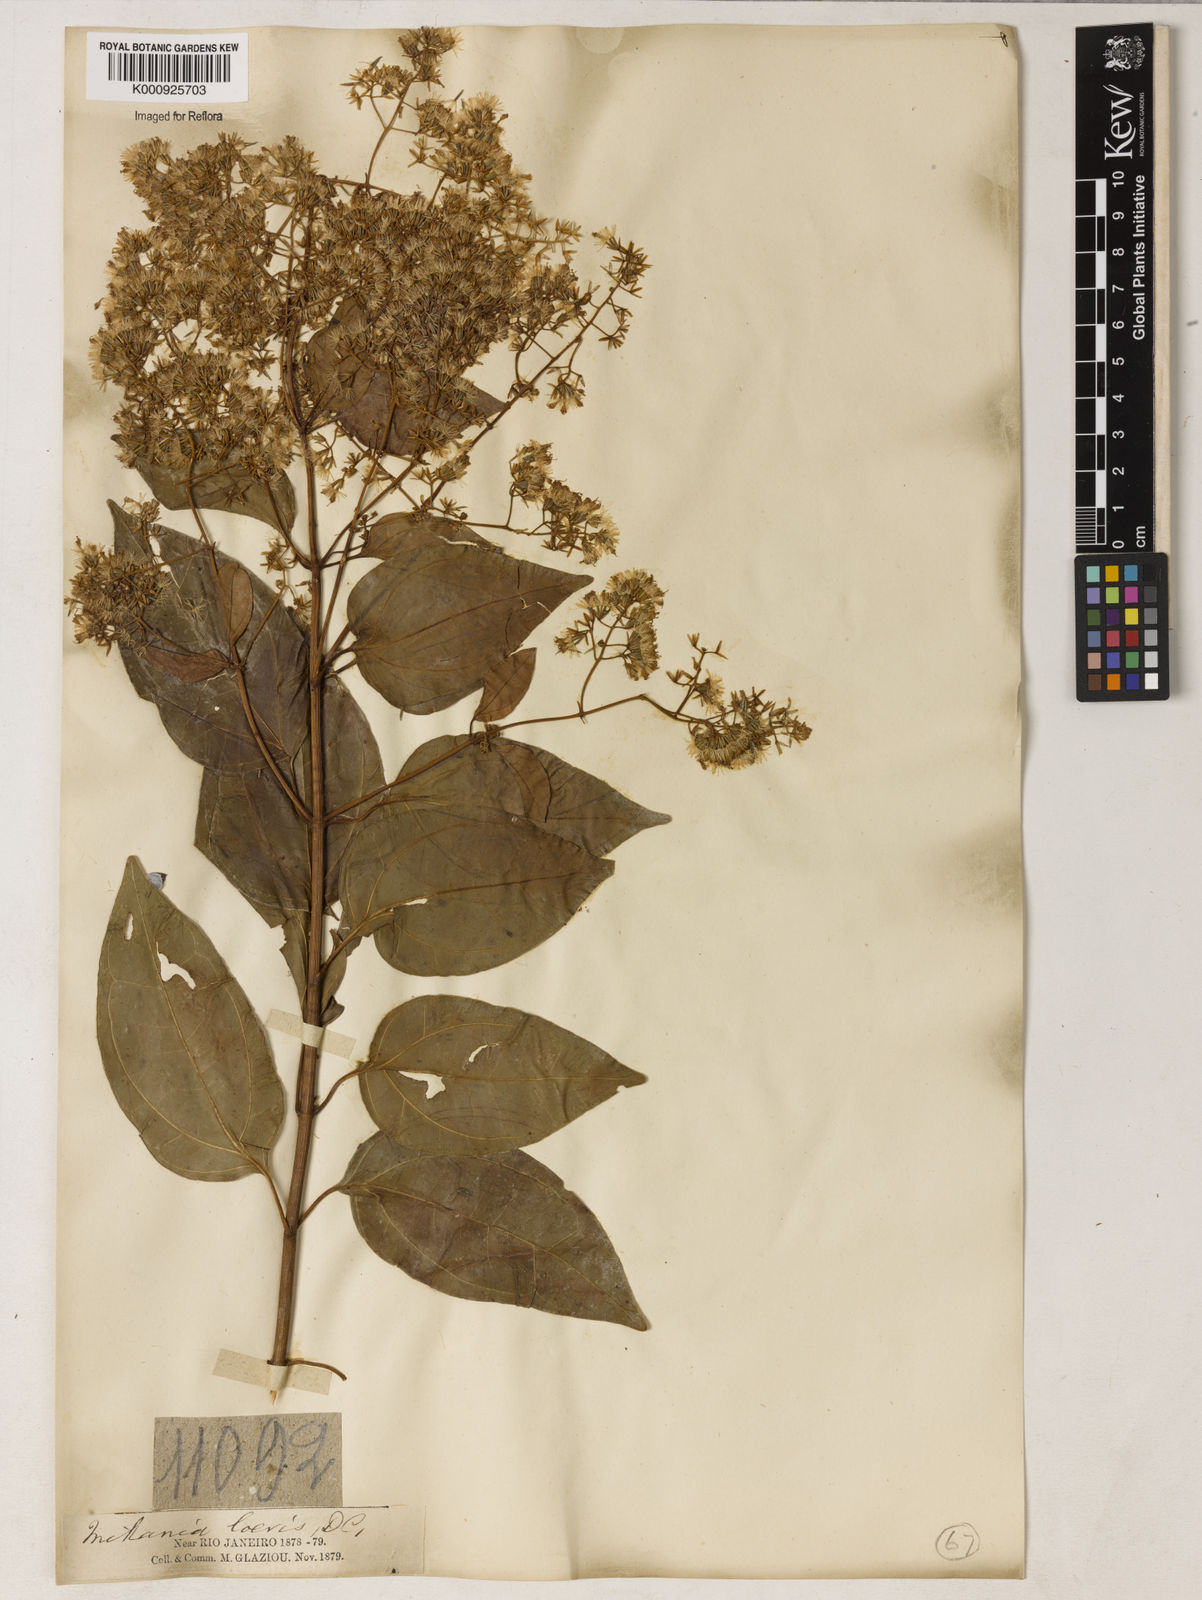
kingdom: Plantae
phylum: Tracheophyta
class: Magnoliopsida
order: Asterales
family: Asteraceae
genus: Mikania
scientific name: Mikania trinervis
